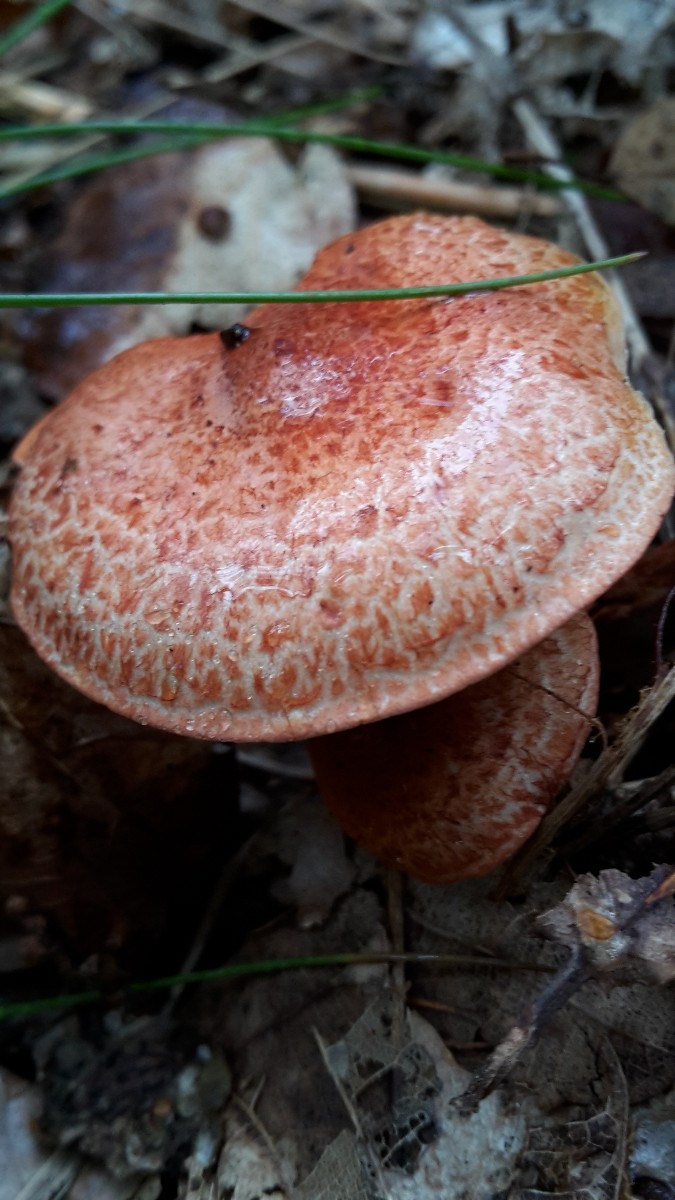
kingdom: Fungi
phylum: Basidiomycota
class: Agaricomycetes
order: Agaricales
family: Cortinariaceae
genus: Cortinarius
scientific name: Cortinarius bolaris
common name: cinnoberskællet slørhat
